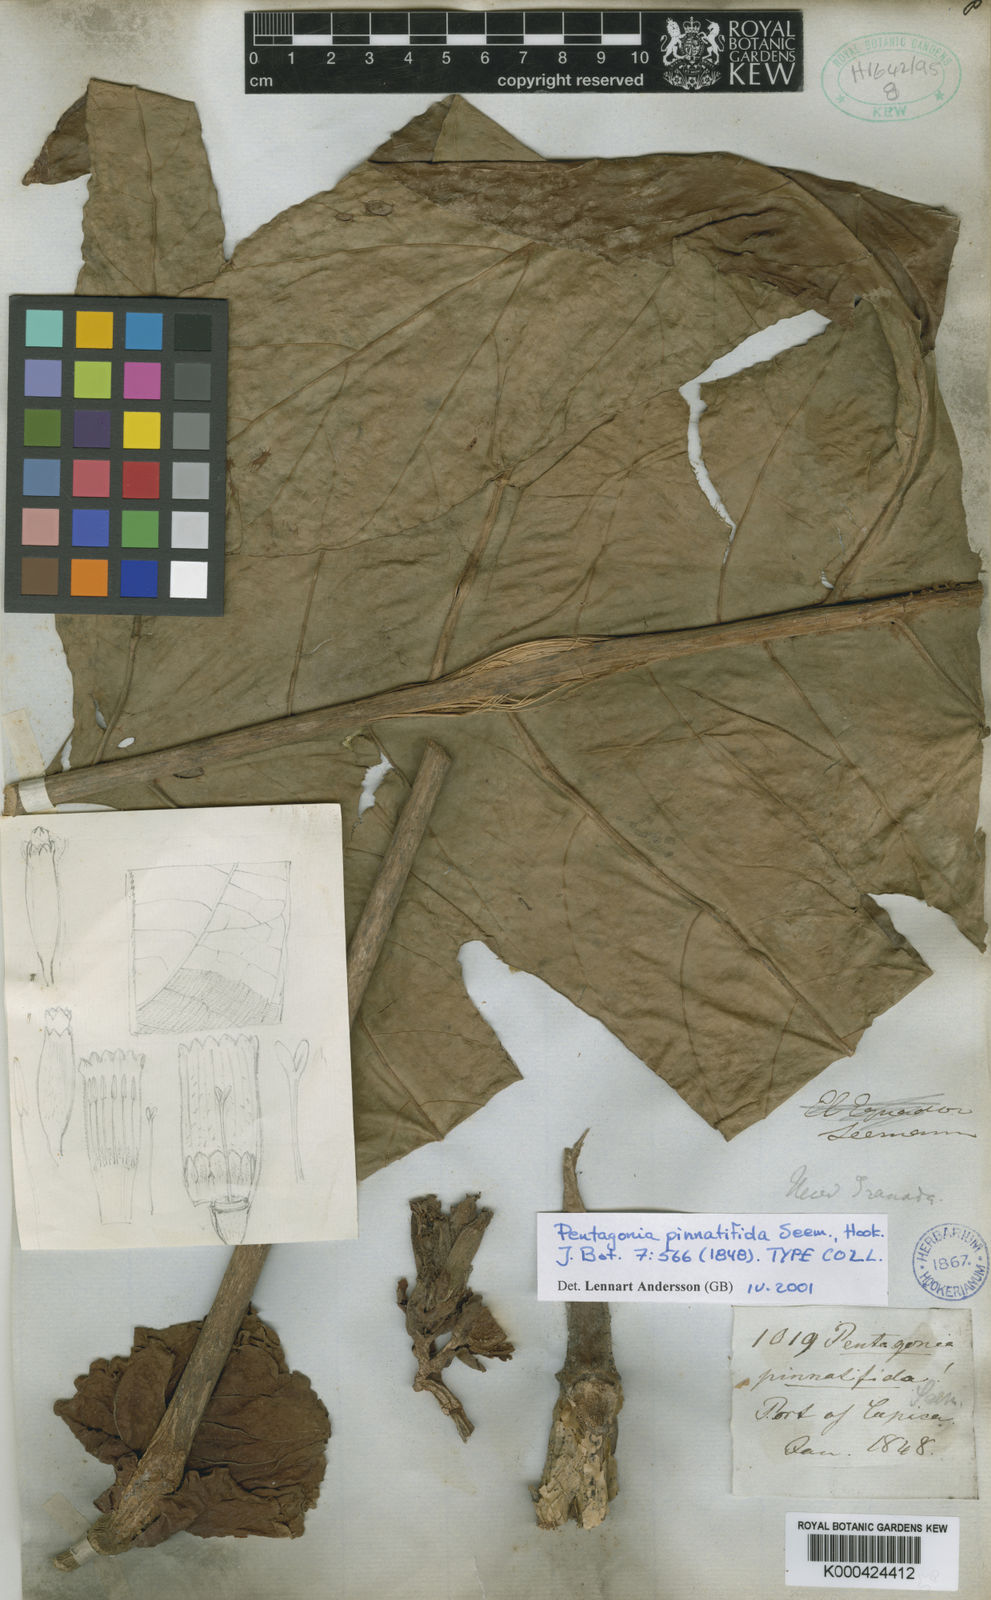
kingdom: Plantae
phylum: Tracheophyta
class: Magnoliopsida
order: Gentianales
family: Rubiaceae
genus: Pentagonia
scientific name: Pentagonia pinnatifida
